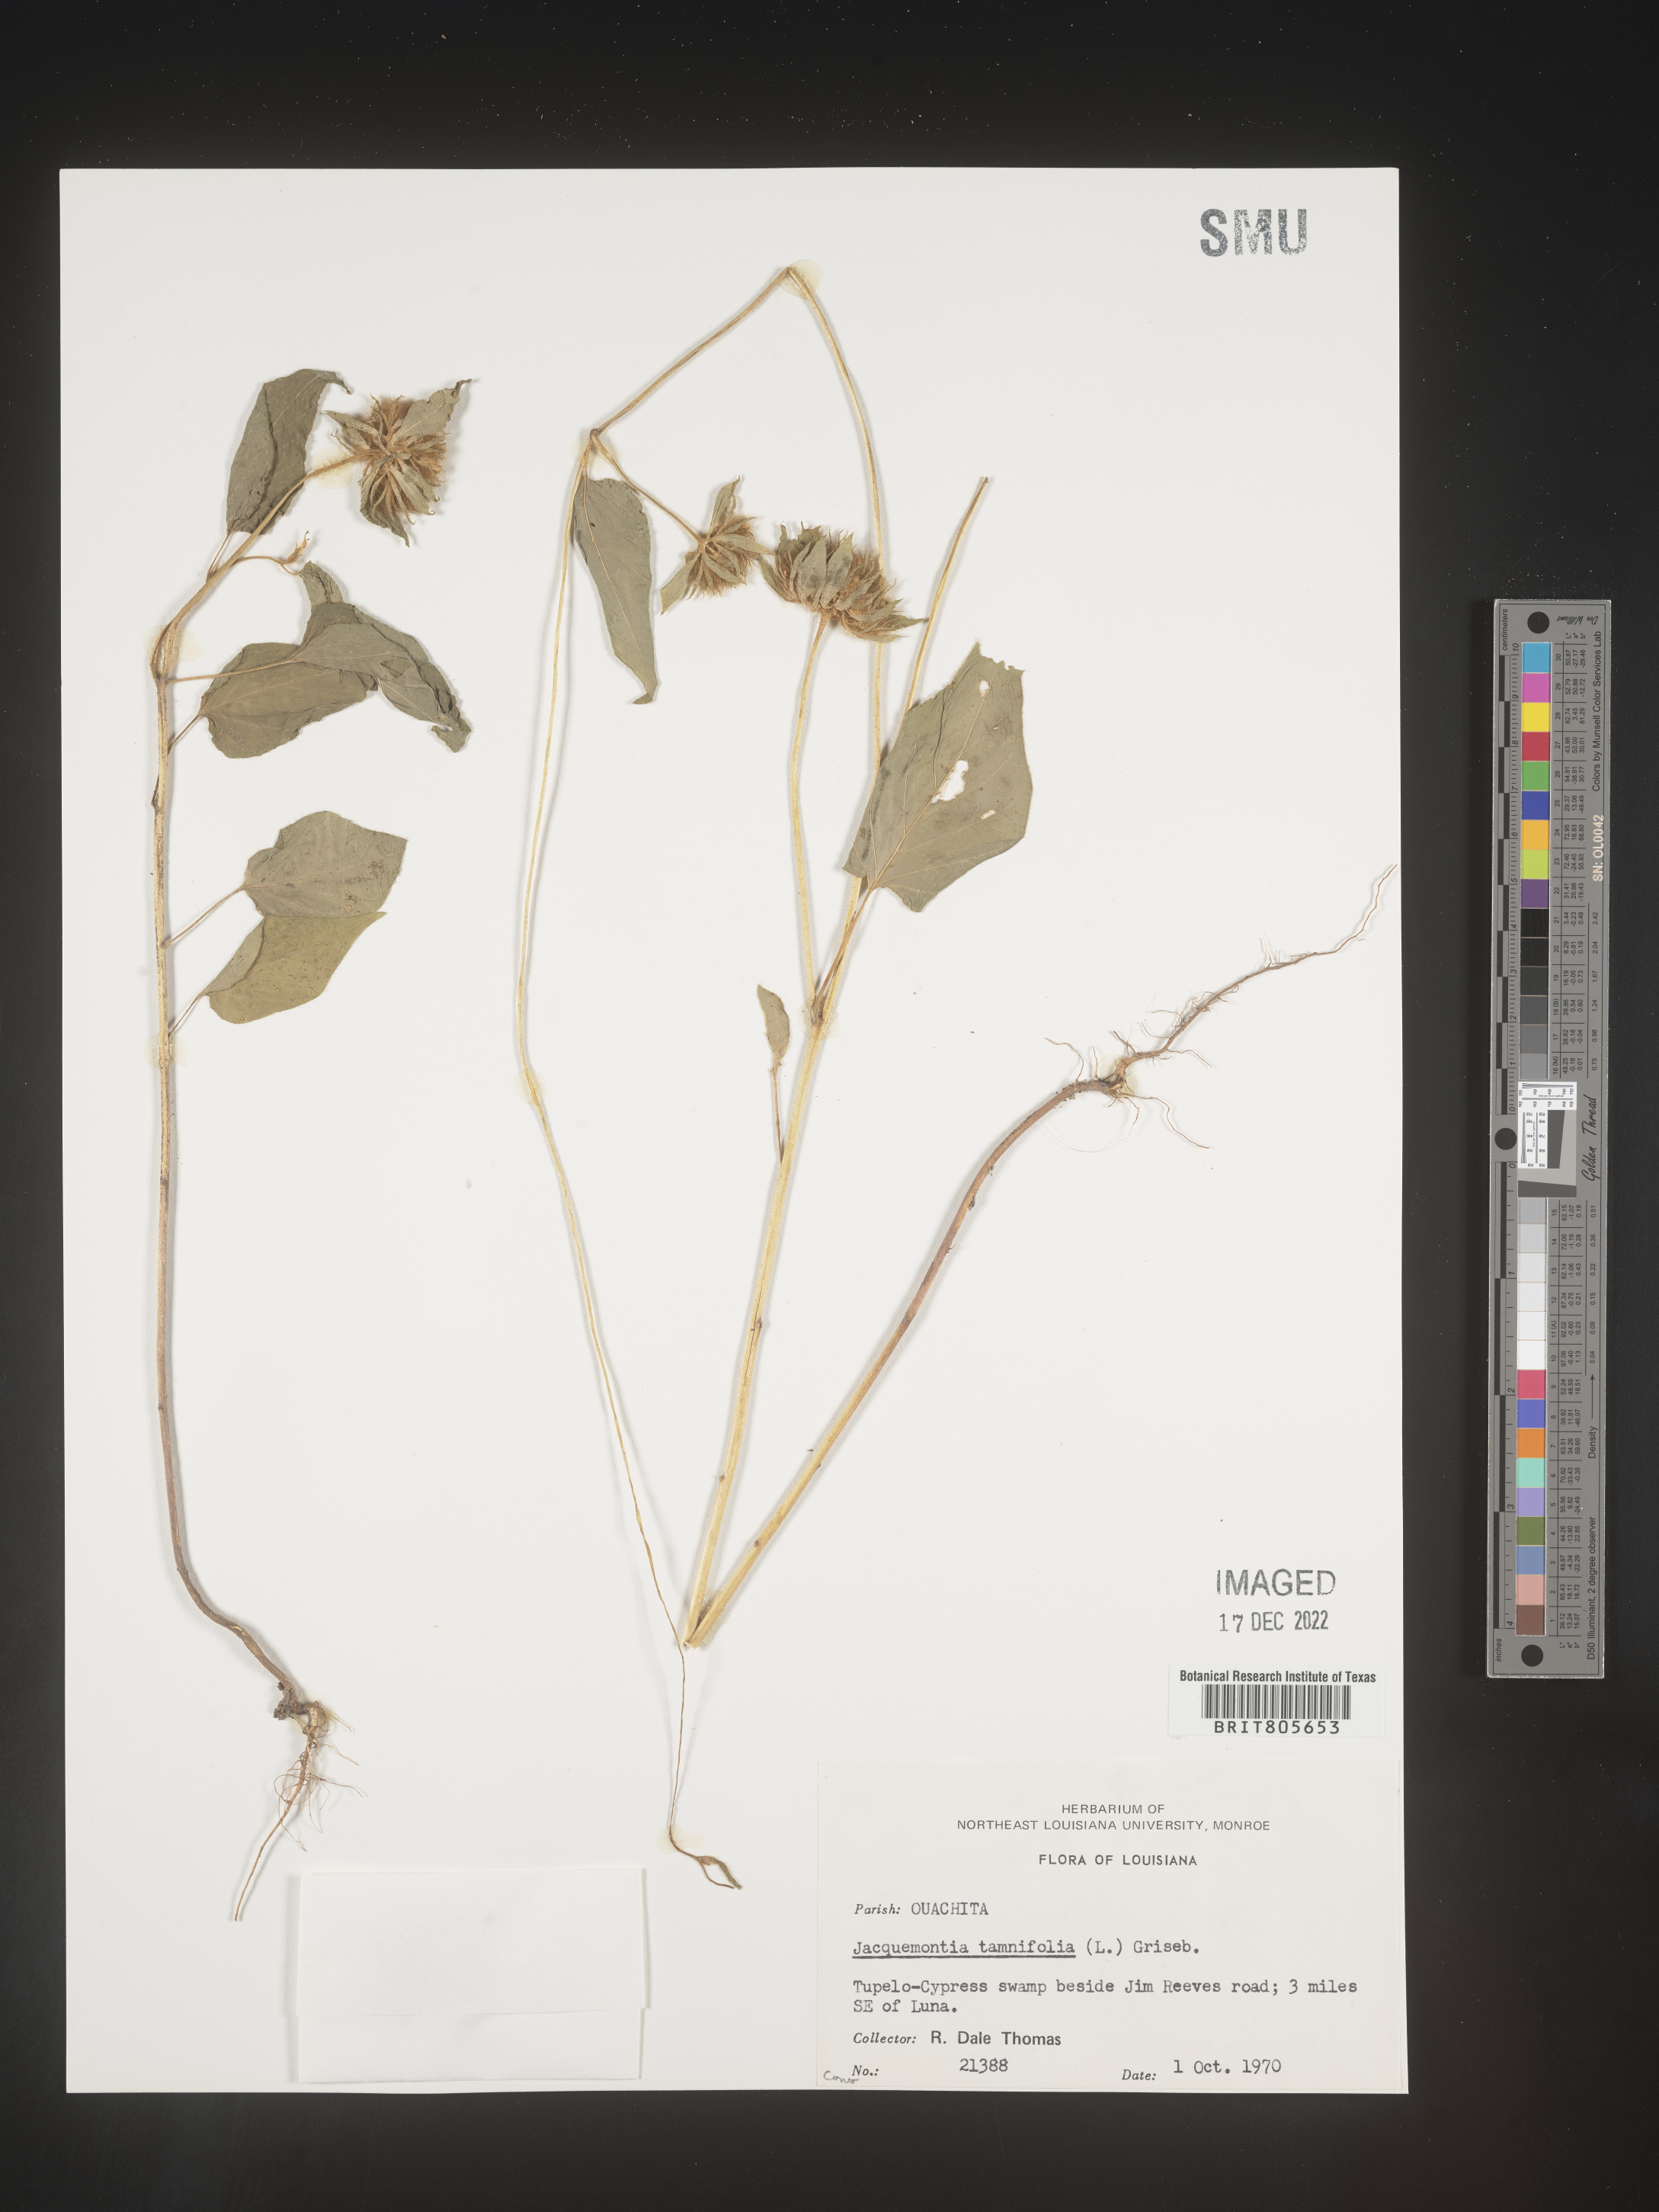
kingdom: Plantae
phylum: Tracheophyta
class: Magnoliopsida
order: Solanales
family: Convolvulaceae
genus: Jacquemontia
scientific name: Jacquemontia tamnifolia
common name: Hairy clustervine
